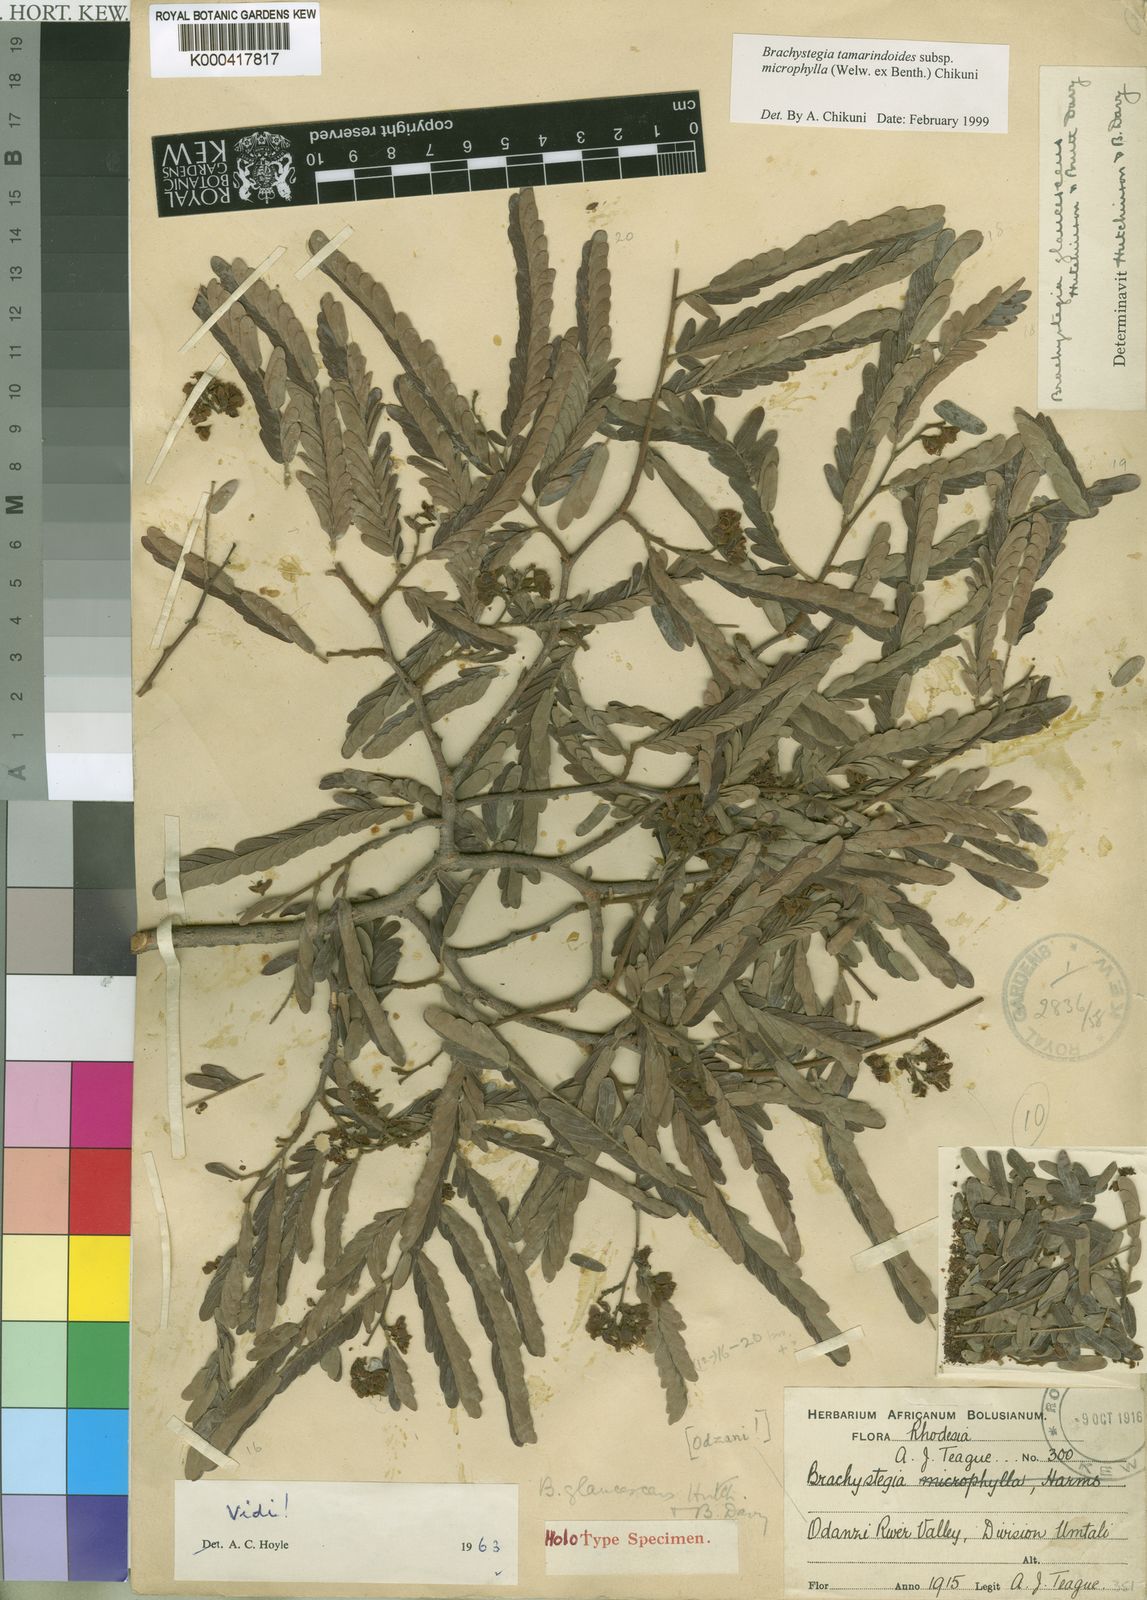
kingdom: Plantae
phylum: Tracheophyta
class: Magnoliopsida
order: Fabales
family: Fabaceae
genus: Brachystegia
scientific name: Brachystegia tamarindoides
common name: Mountain acacia
